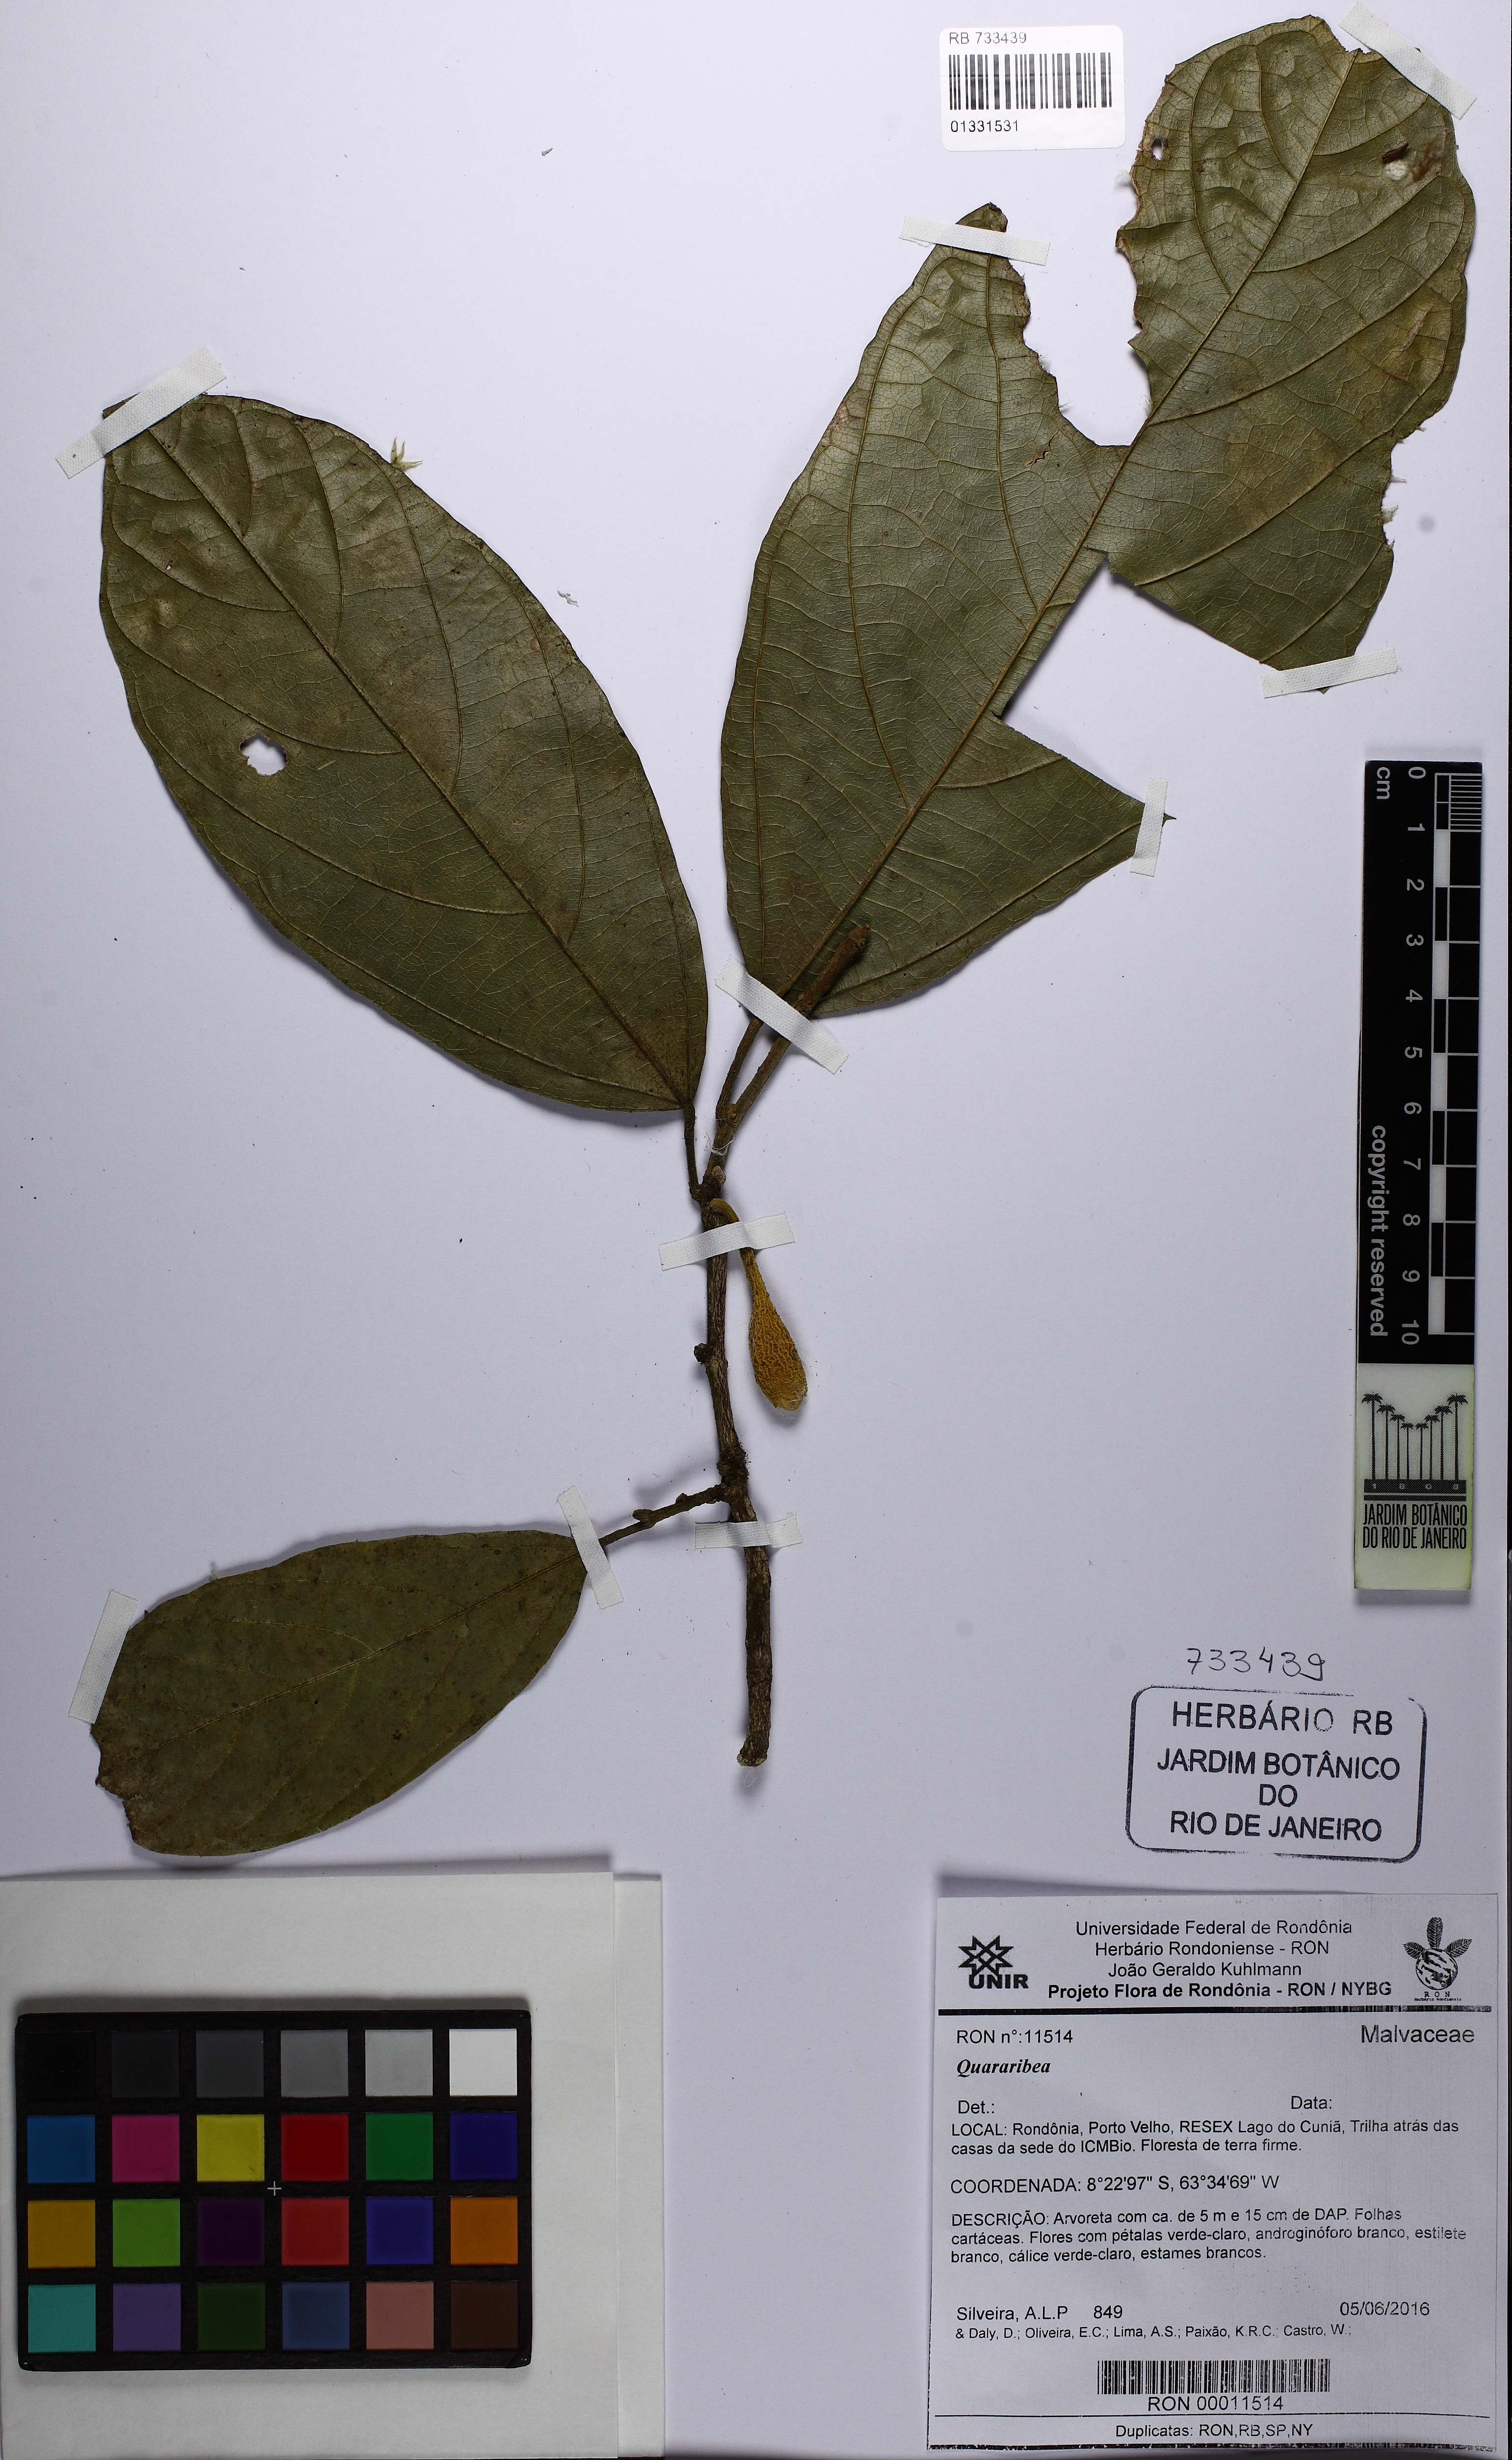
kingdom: Plantae
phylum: Tracheophyta
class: Magnoliopsida
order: Malvales
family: Malvaceae
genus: Matisia
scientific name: Matisia ochrocalyx
